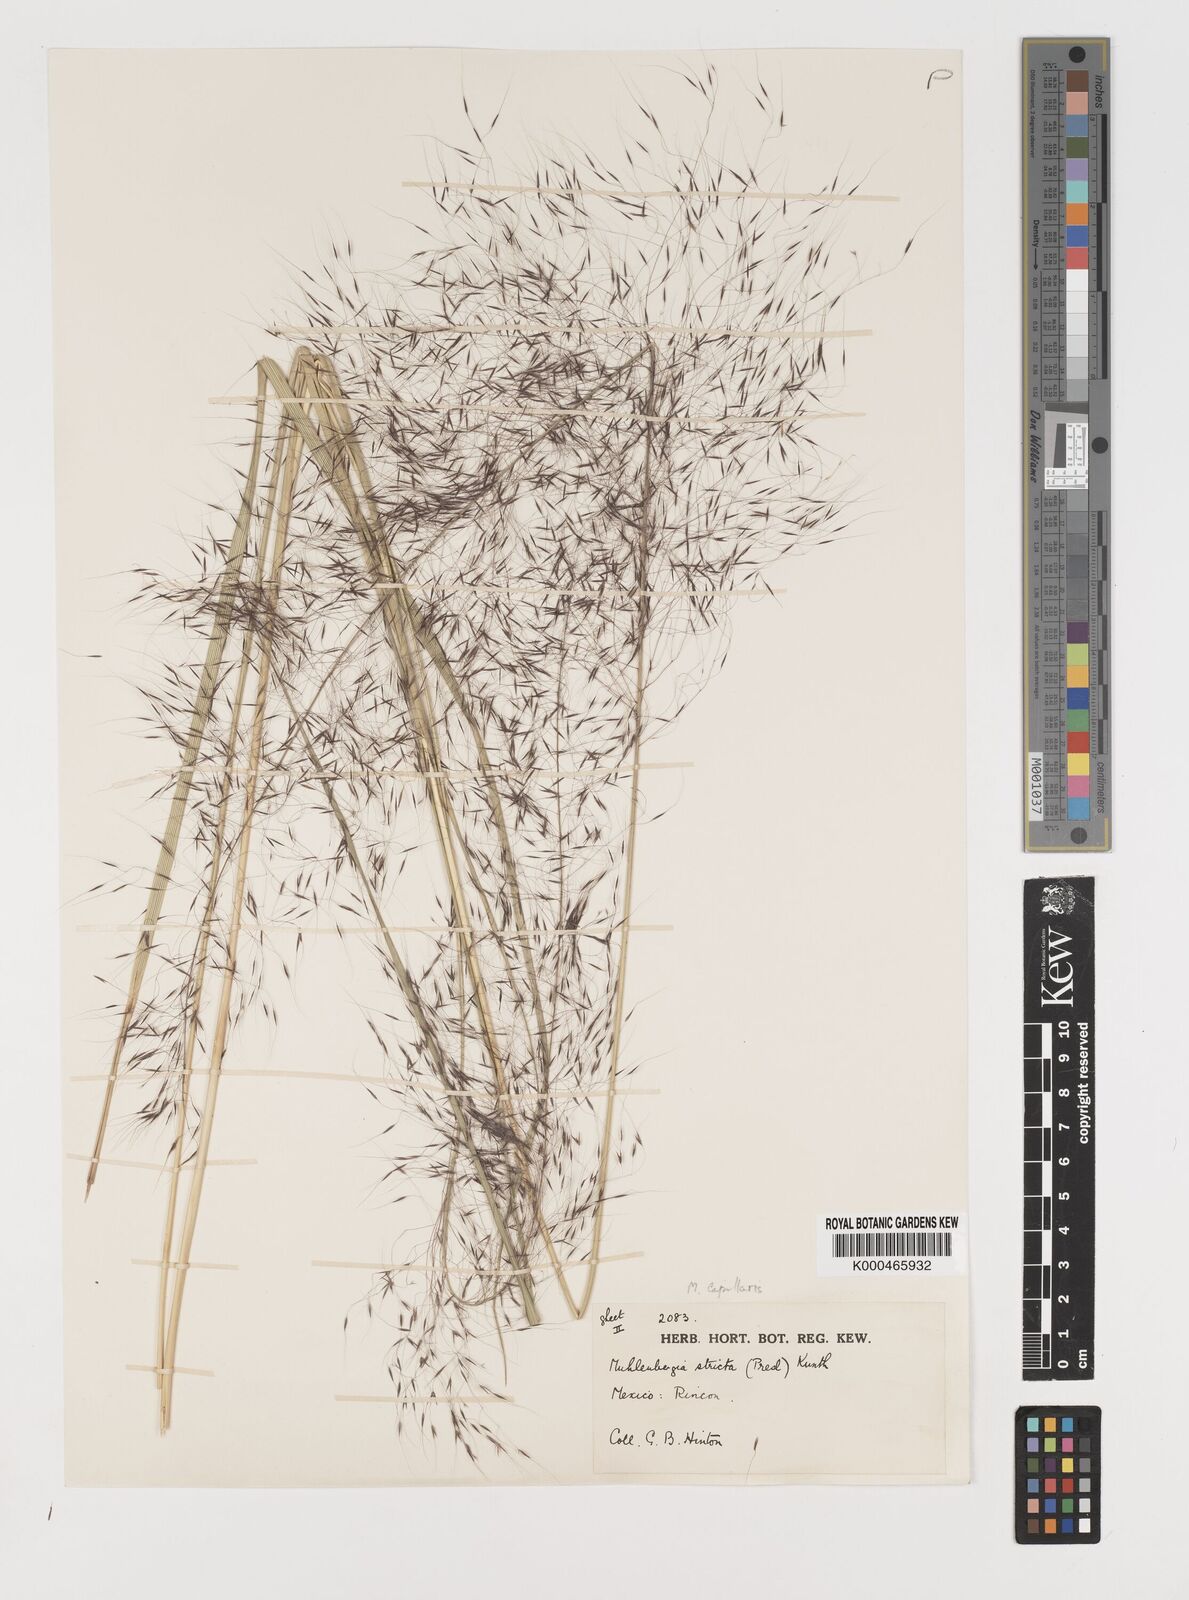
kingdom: Plantae
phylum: Tracheophyta
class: Liliopsida
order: Poales
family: Poaceae
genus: Muhlenbergia
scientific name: Muhlenbergia rigida
